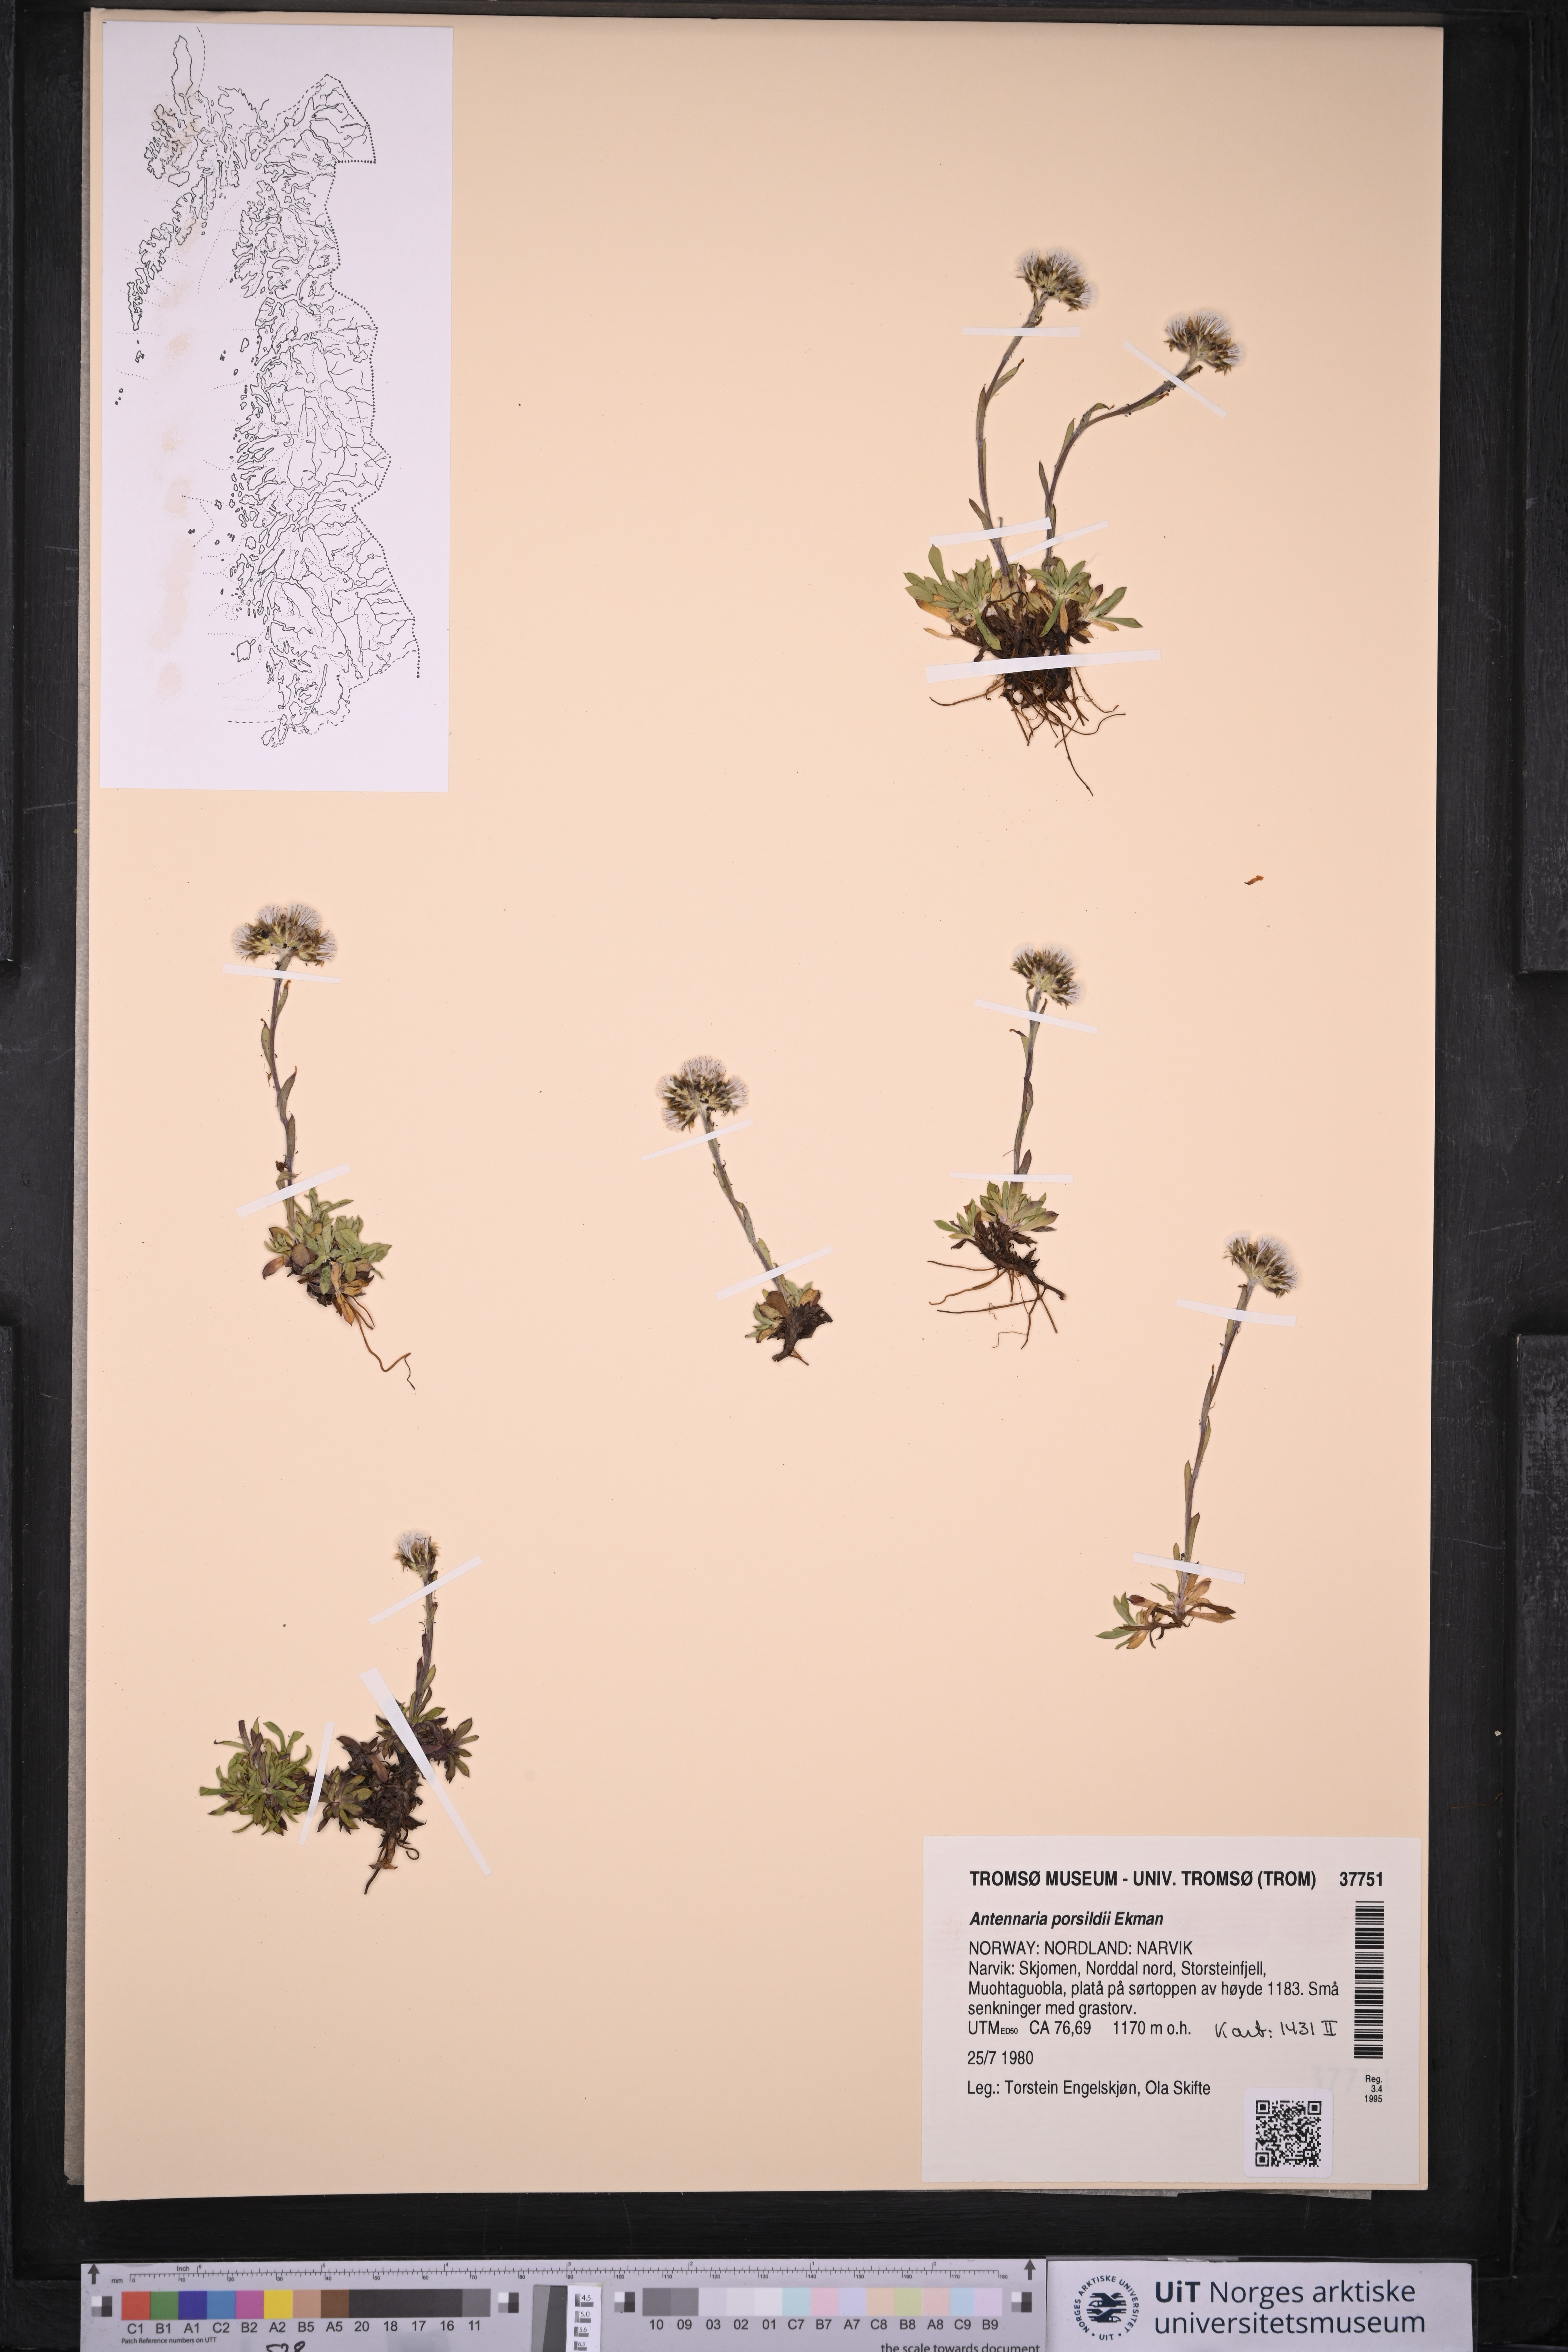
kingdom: Plantae
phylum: Tracheophyta
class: Magnoliopsida
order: Asterales
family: Asteraceae
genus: Antennaria
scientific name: Antennaria porsildii
